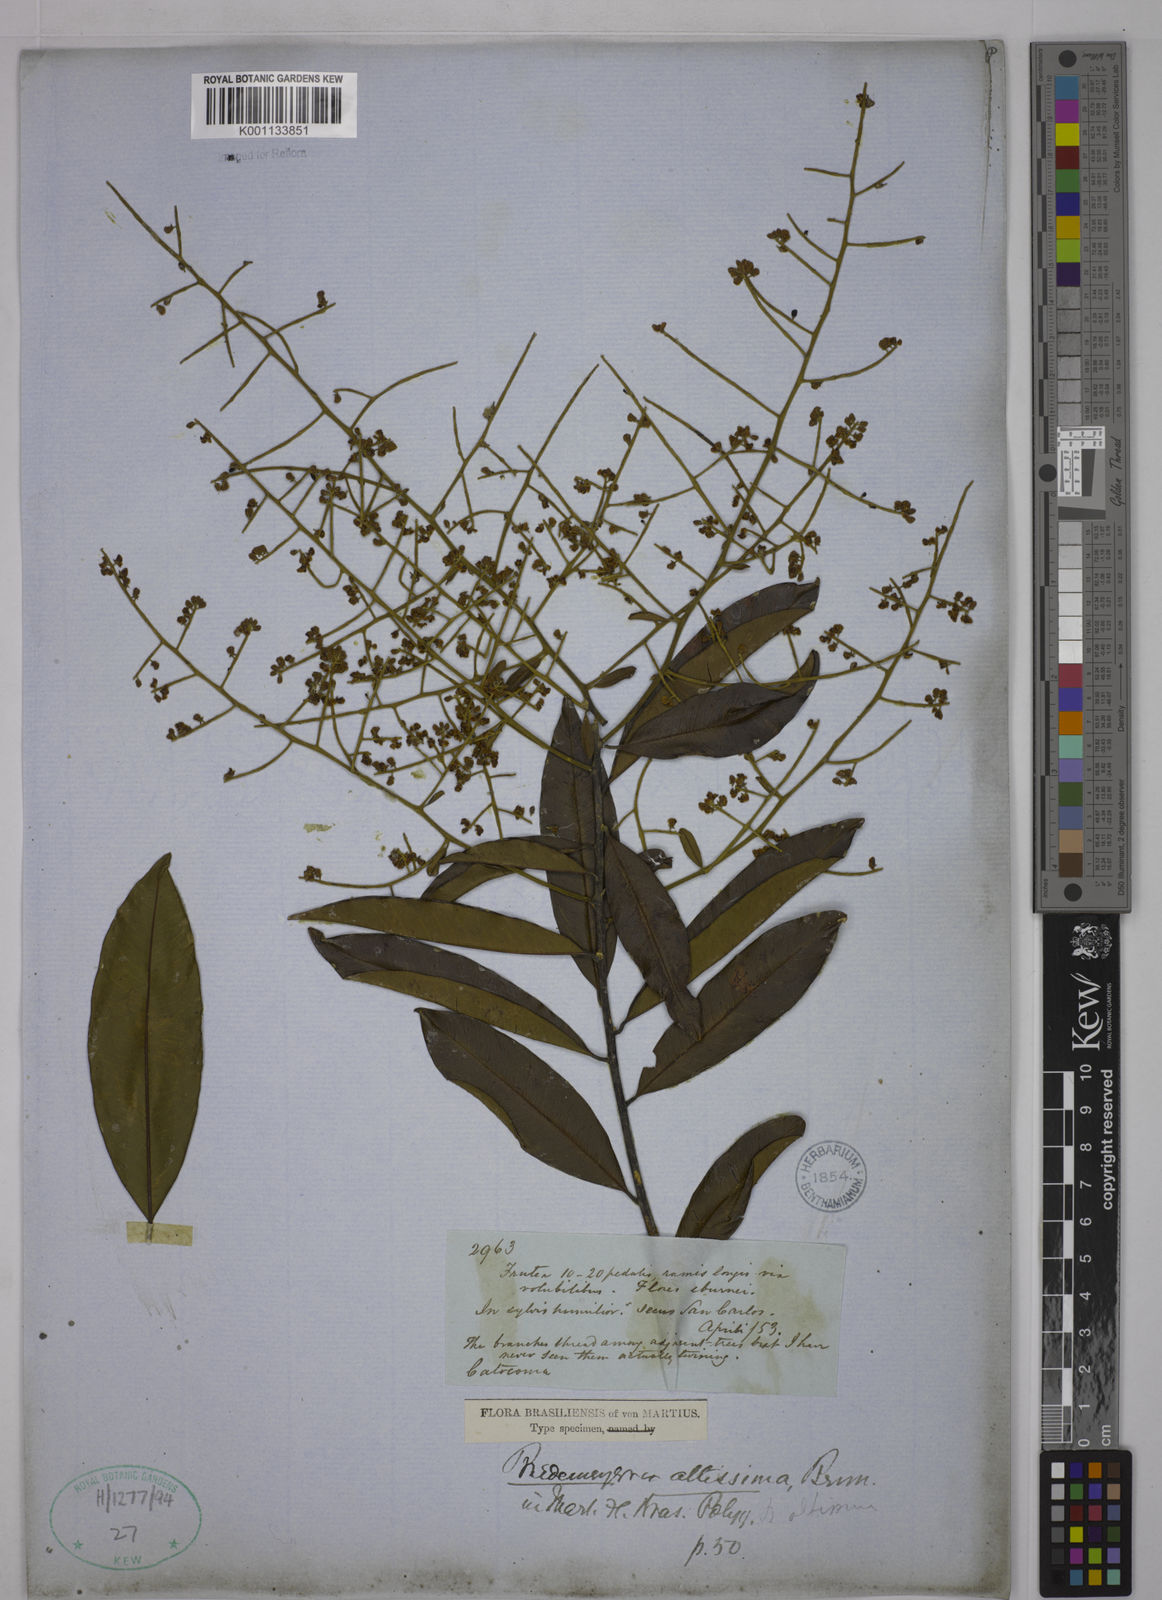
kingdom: Plantae
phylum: Tracheophyta
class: Magnoliopsida
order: Fabales
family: Polygalaceae
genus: Bredemeyera
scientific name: Bredemeyera divaricata
